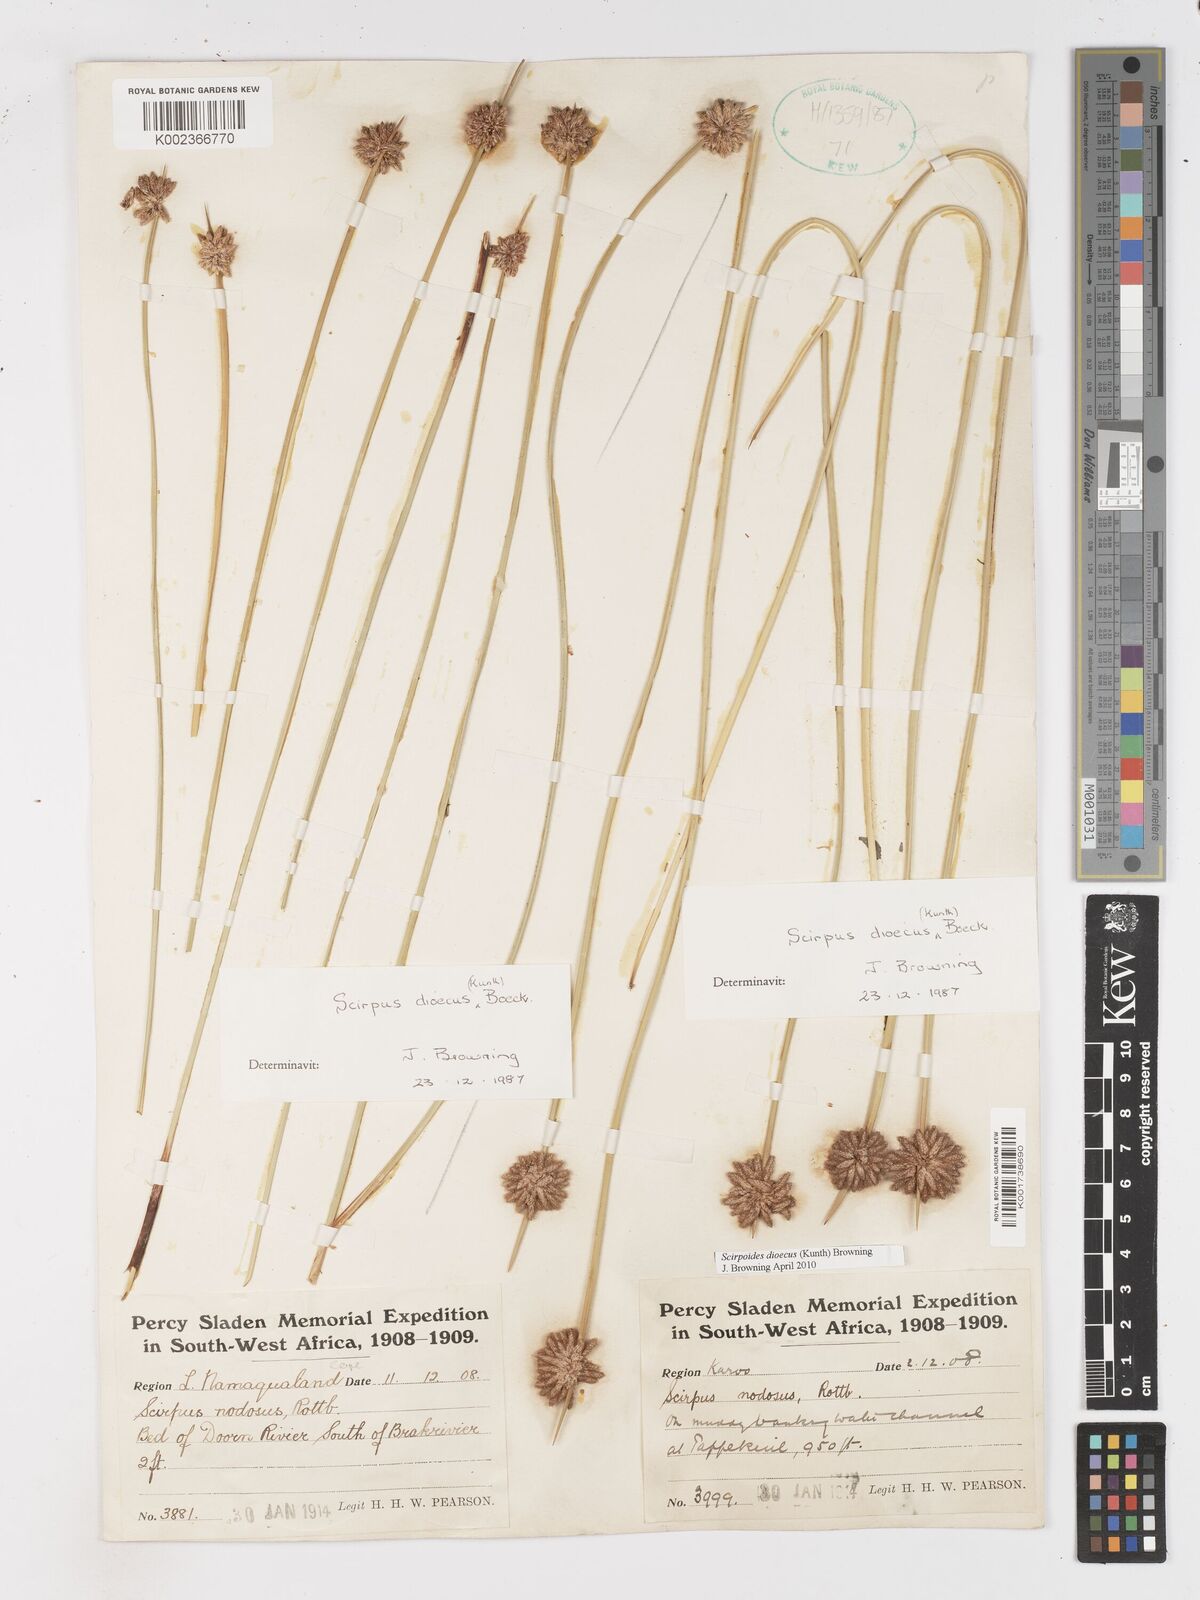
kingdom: Plantae
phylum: Tracheophyta
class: Liliopsida
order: Poales
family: Cyperaceae
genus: Afroscirpoides
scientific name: Afroscirpoides dioeca
